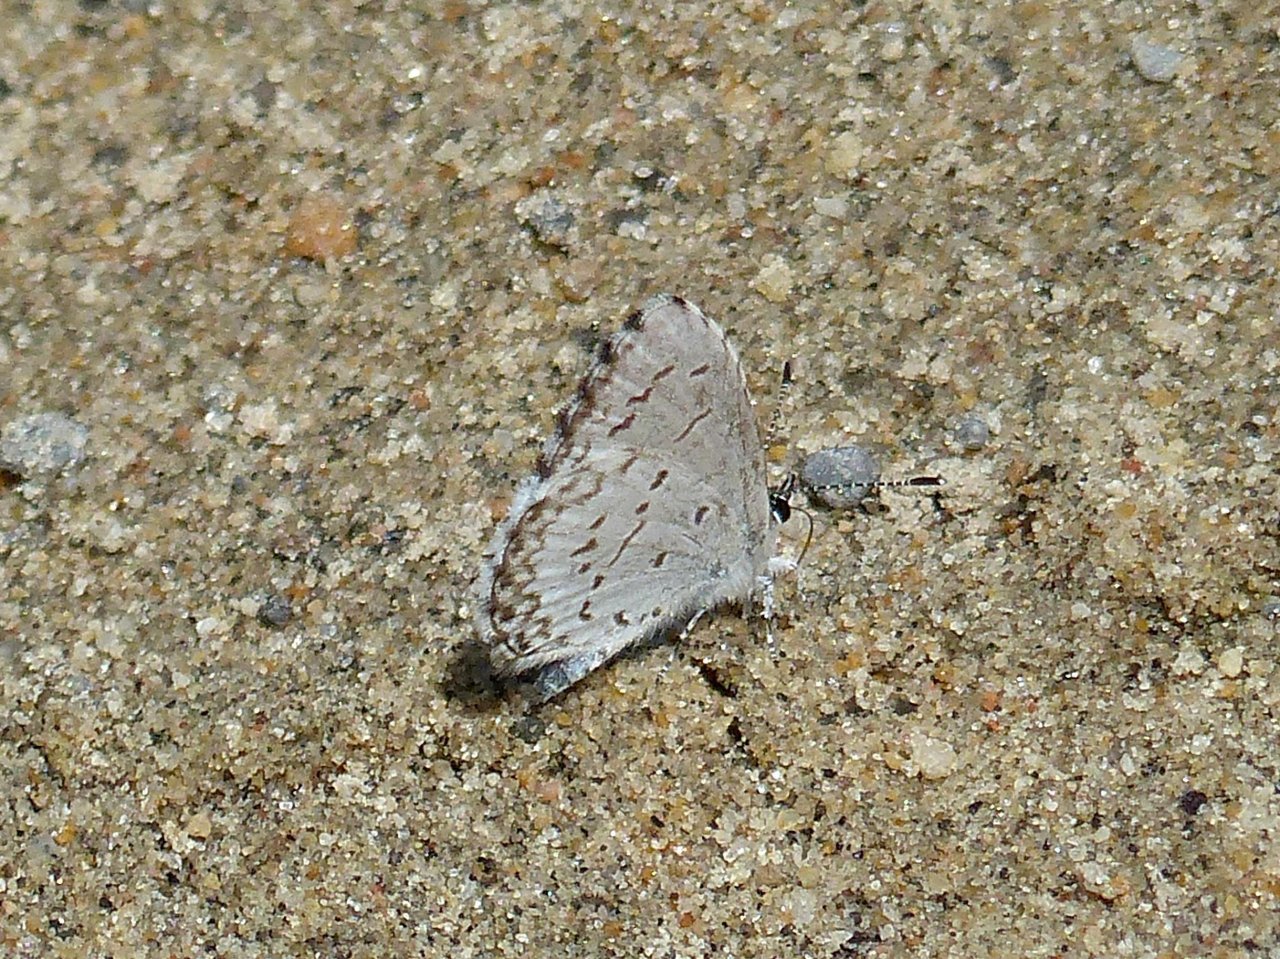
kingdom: Animalia
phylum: Arthropoda
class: Insecta
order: Lepidoptera
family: Lycaenidae
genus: Celastrina
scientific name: Celastrina lucia
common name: Northern Spring Azure
